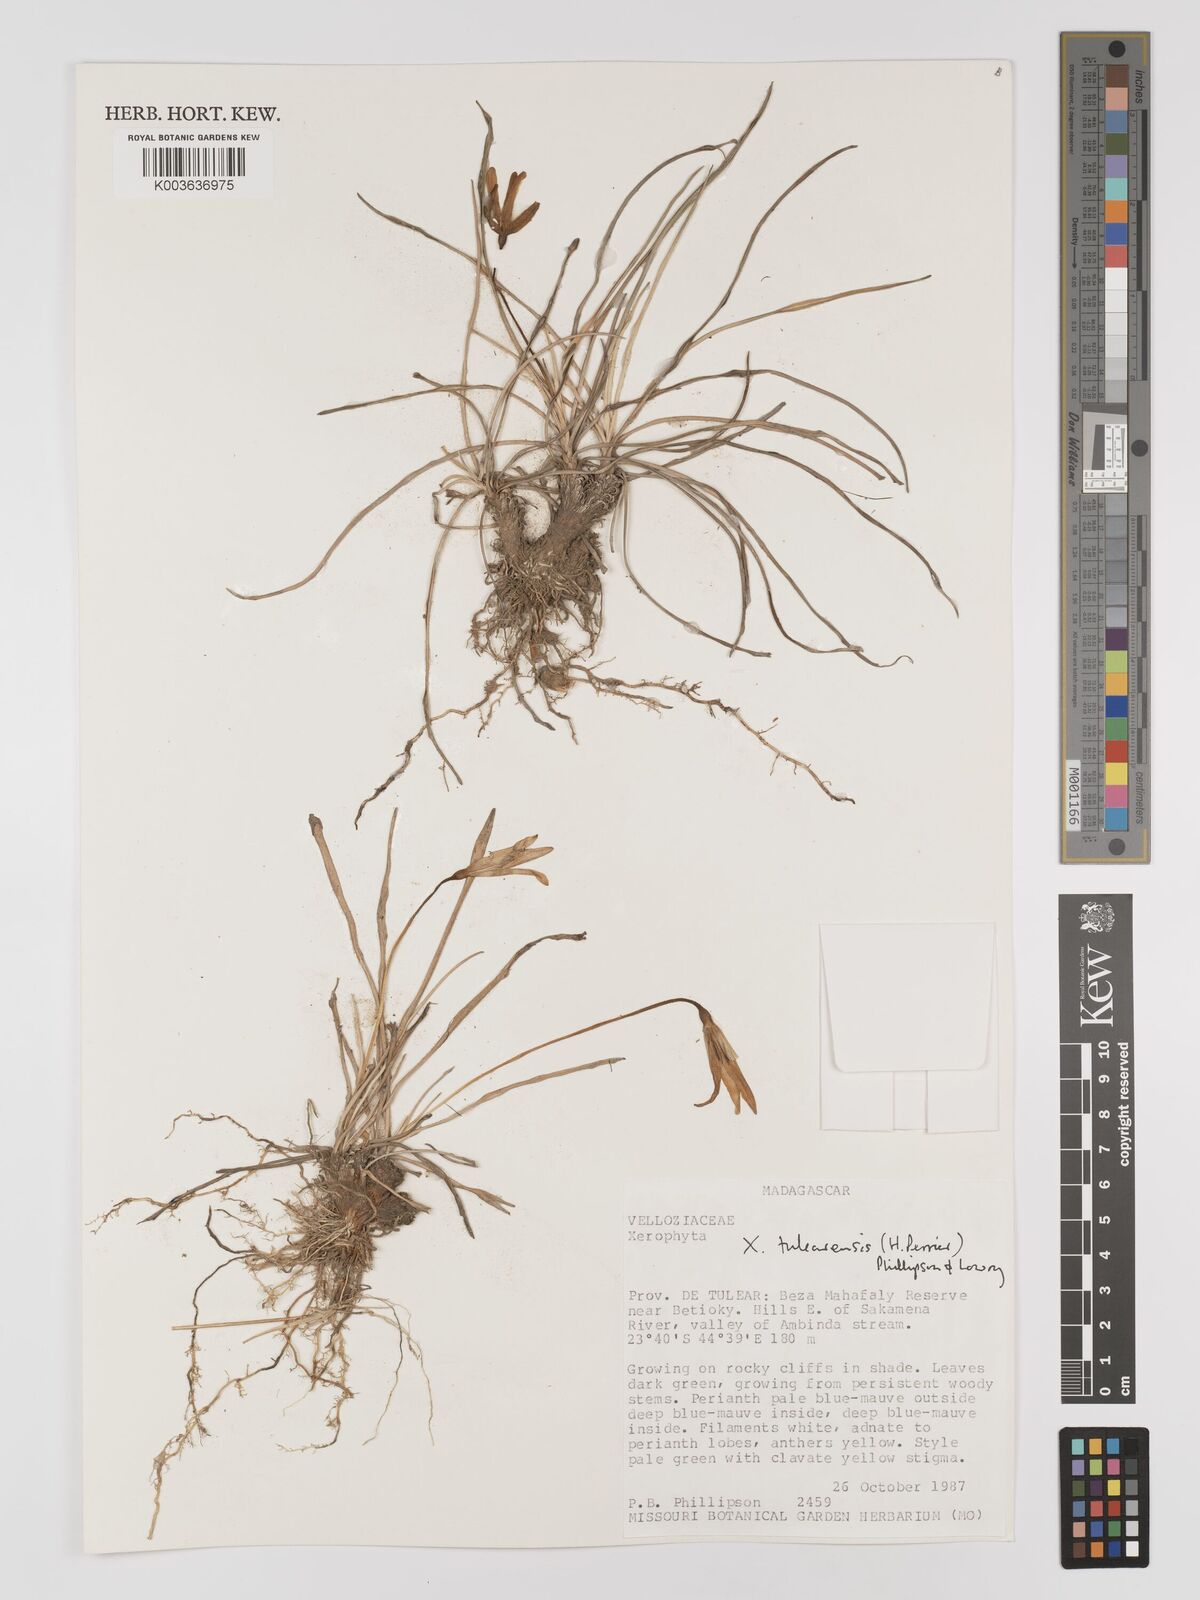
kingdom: Plantae
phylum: Tracheophyta
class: Liliopsida
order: Pandanales
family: Velloziaceae
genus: Xerophyta
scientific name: Xerophyta
